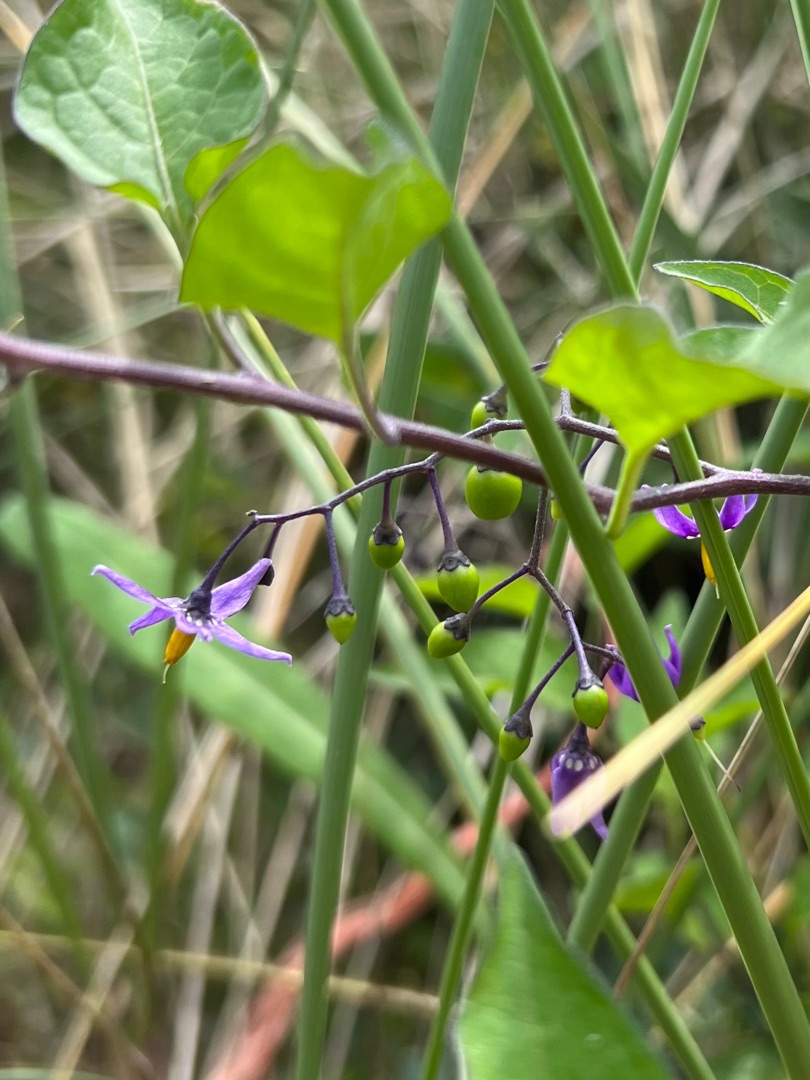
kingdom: Plantae
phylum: Tracheophyta
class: Magnoliopsida
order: Solanales
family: Solanaceae
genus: Solanum
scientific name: Solanum dulcamara
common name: Bittersød natskygge
